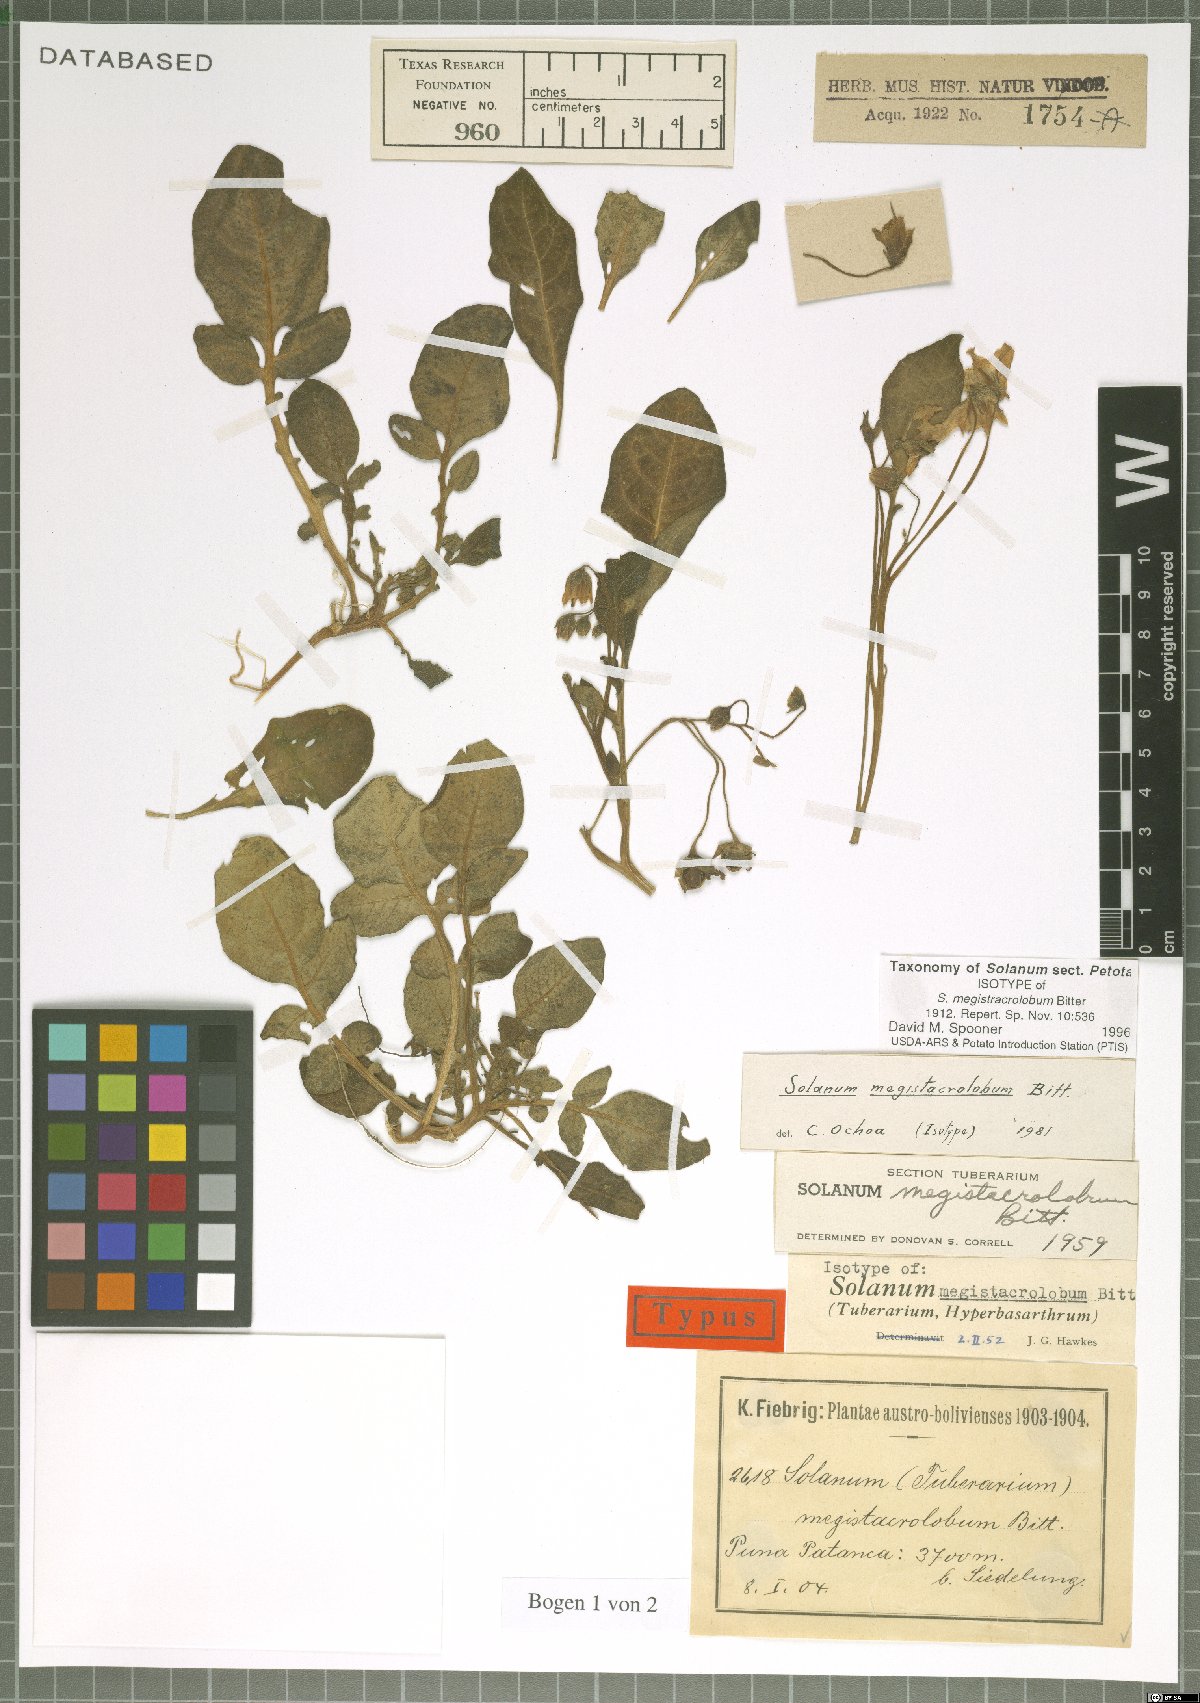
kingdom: Plantae
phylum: Tracheophyta
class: Magnoliopsida
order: Solanales
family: Solanaceae
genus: Solanum
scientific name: Solanum boliviense
